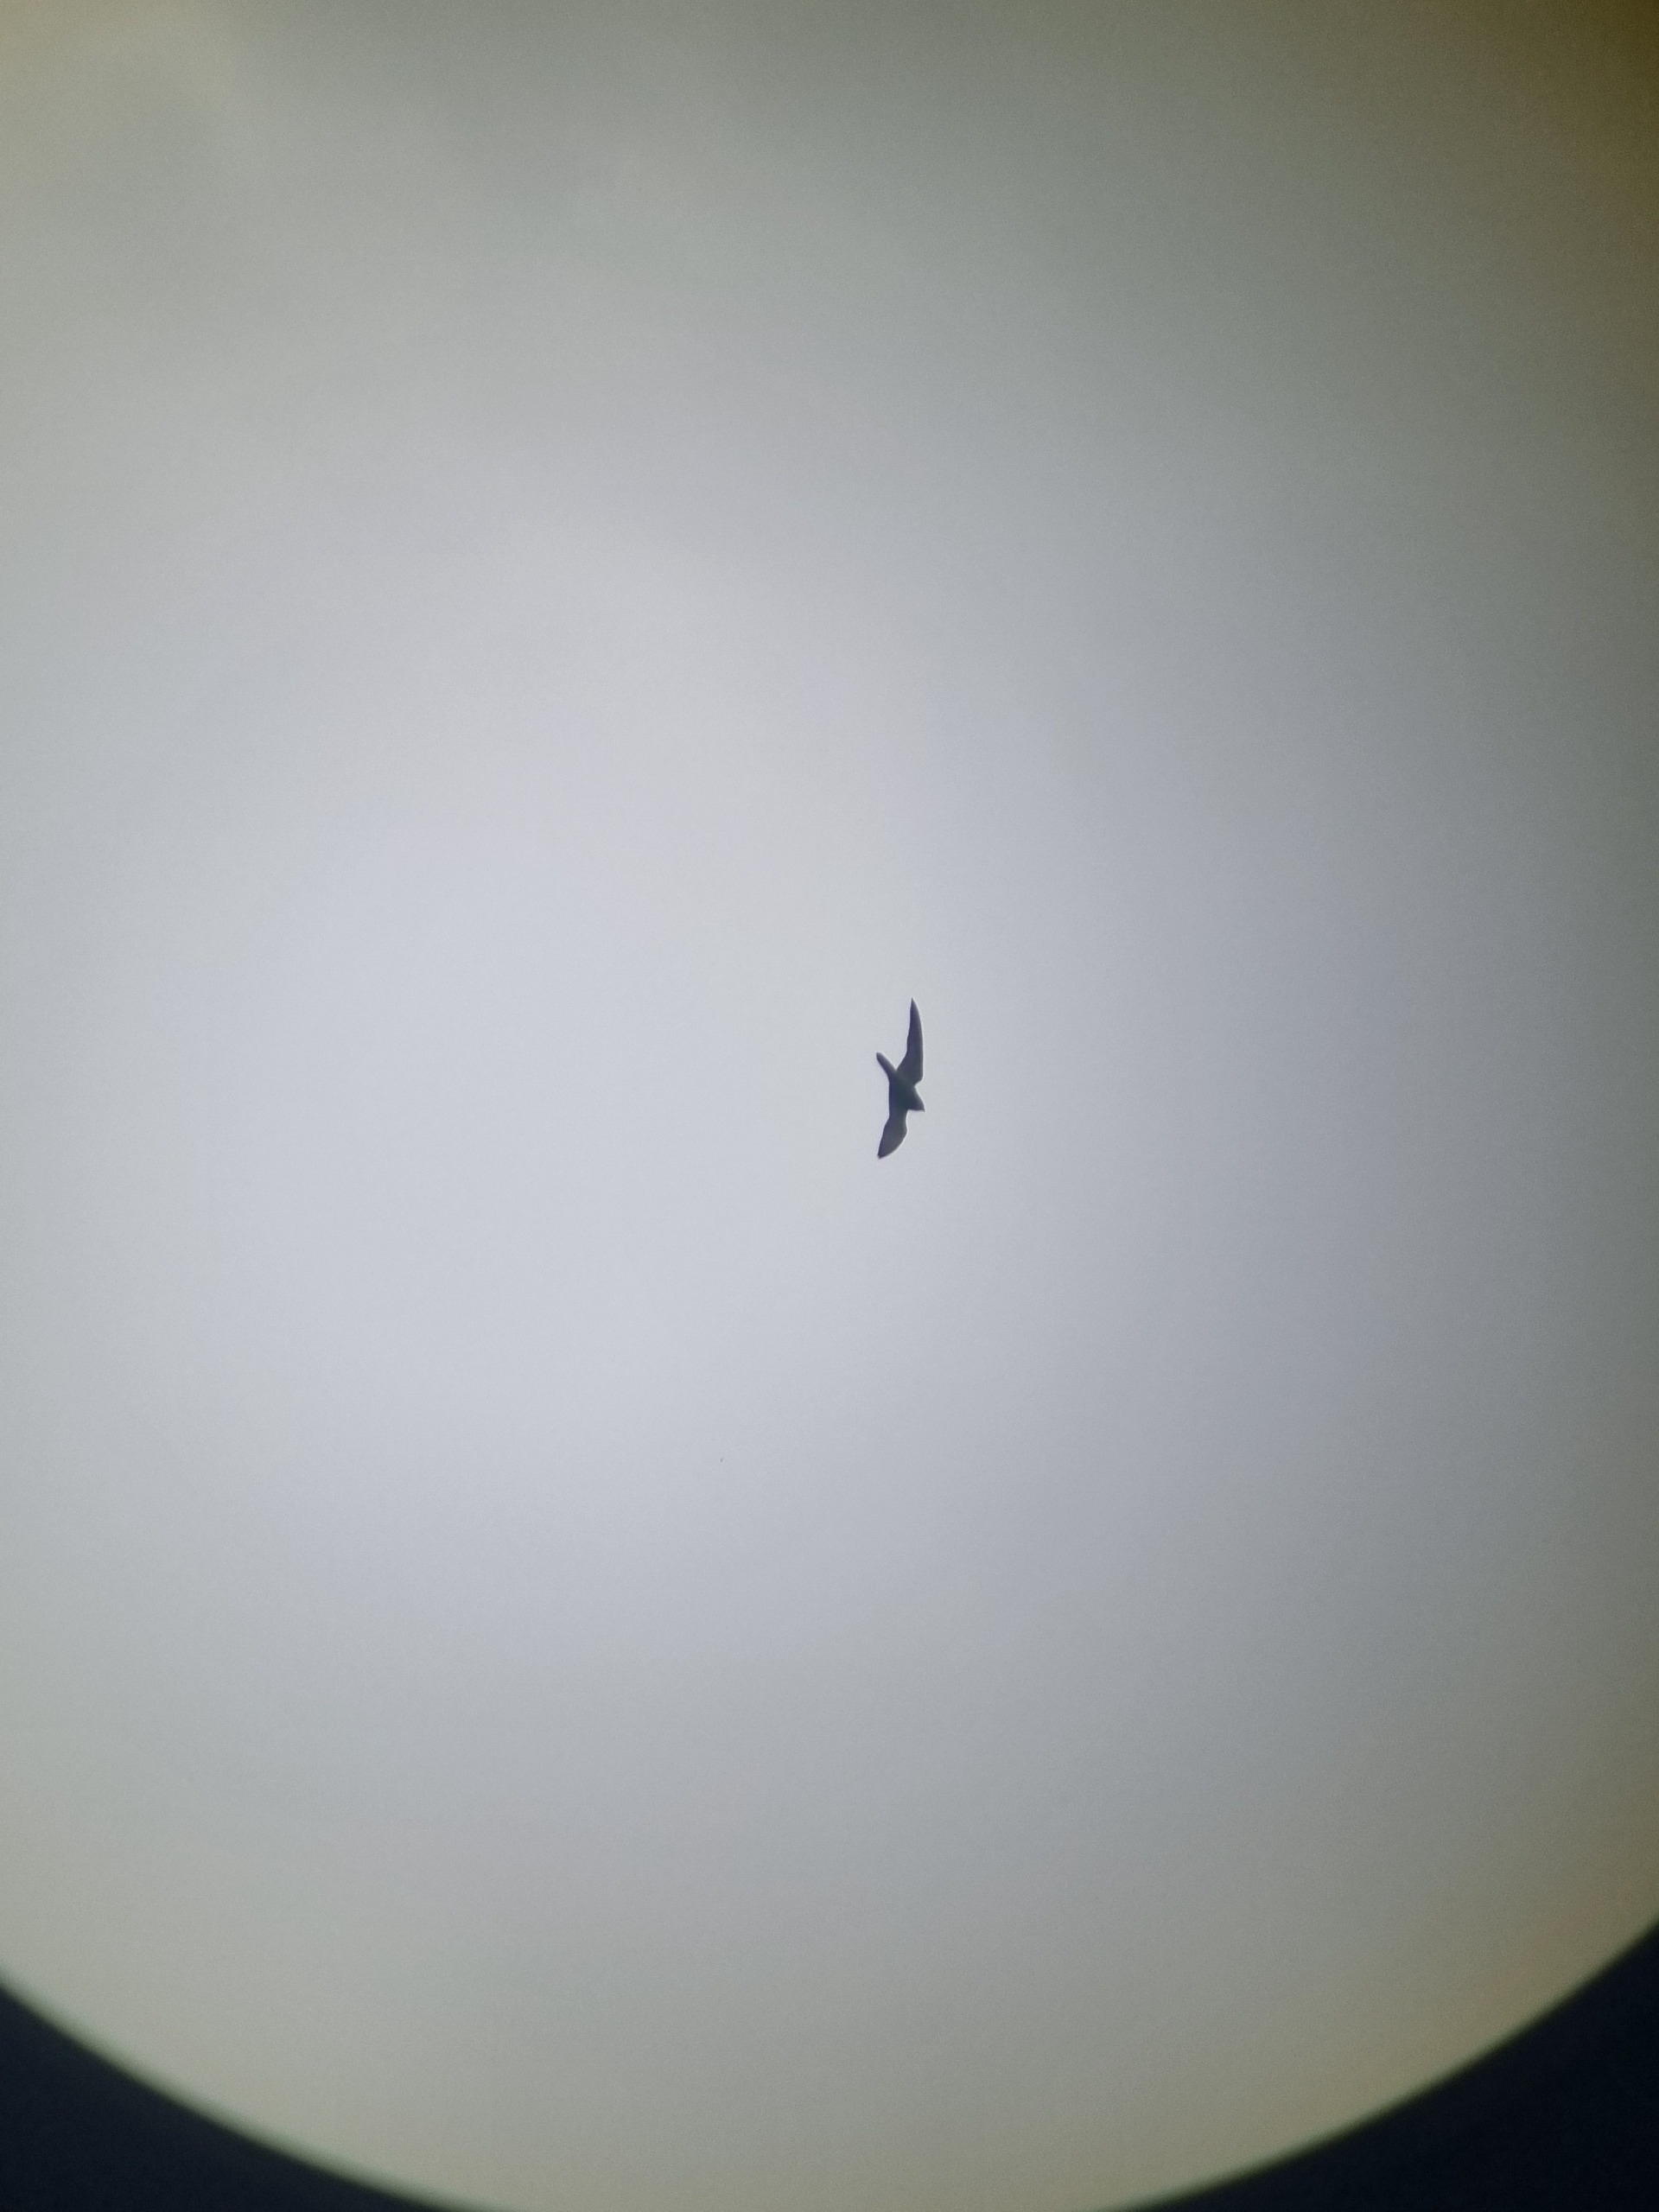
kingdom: Animalia
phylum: Chordata
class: Aves
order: Falconiformes
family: Falconidae
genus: Falco
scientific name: Falco subbuteo
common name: Lærkefalk
